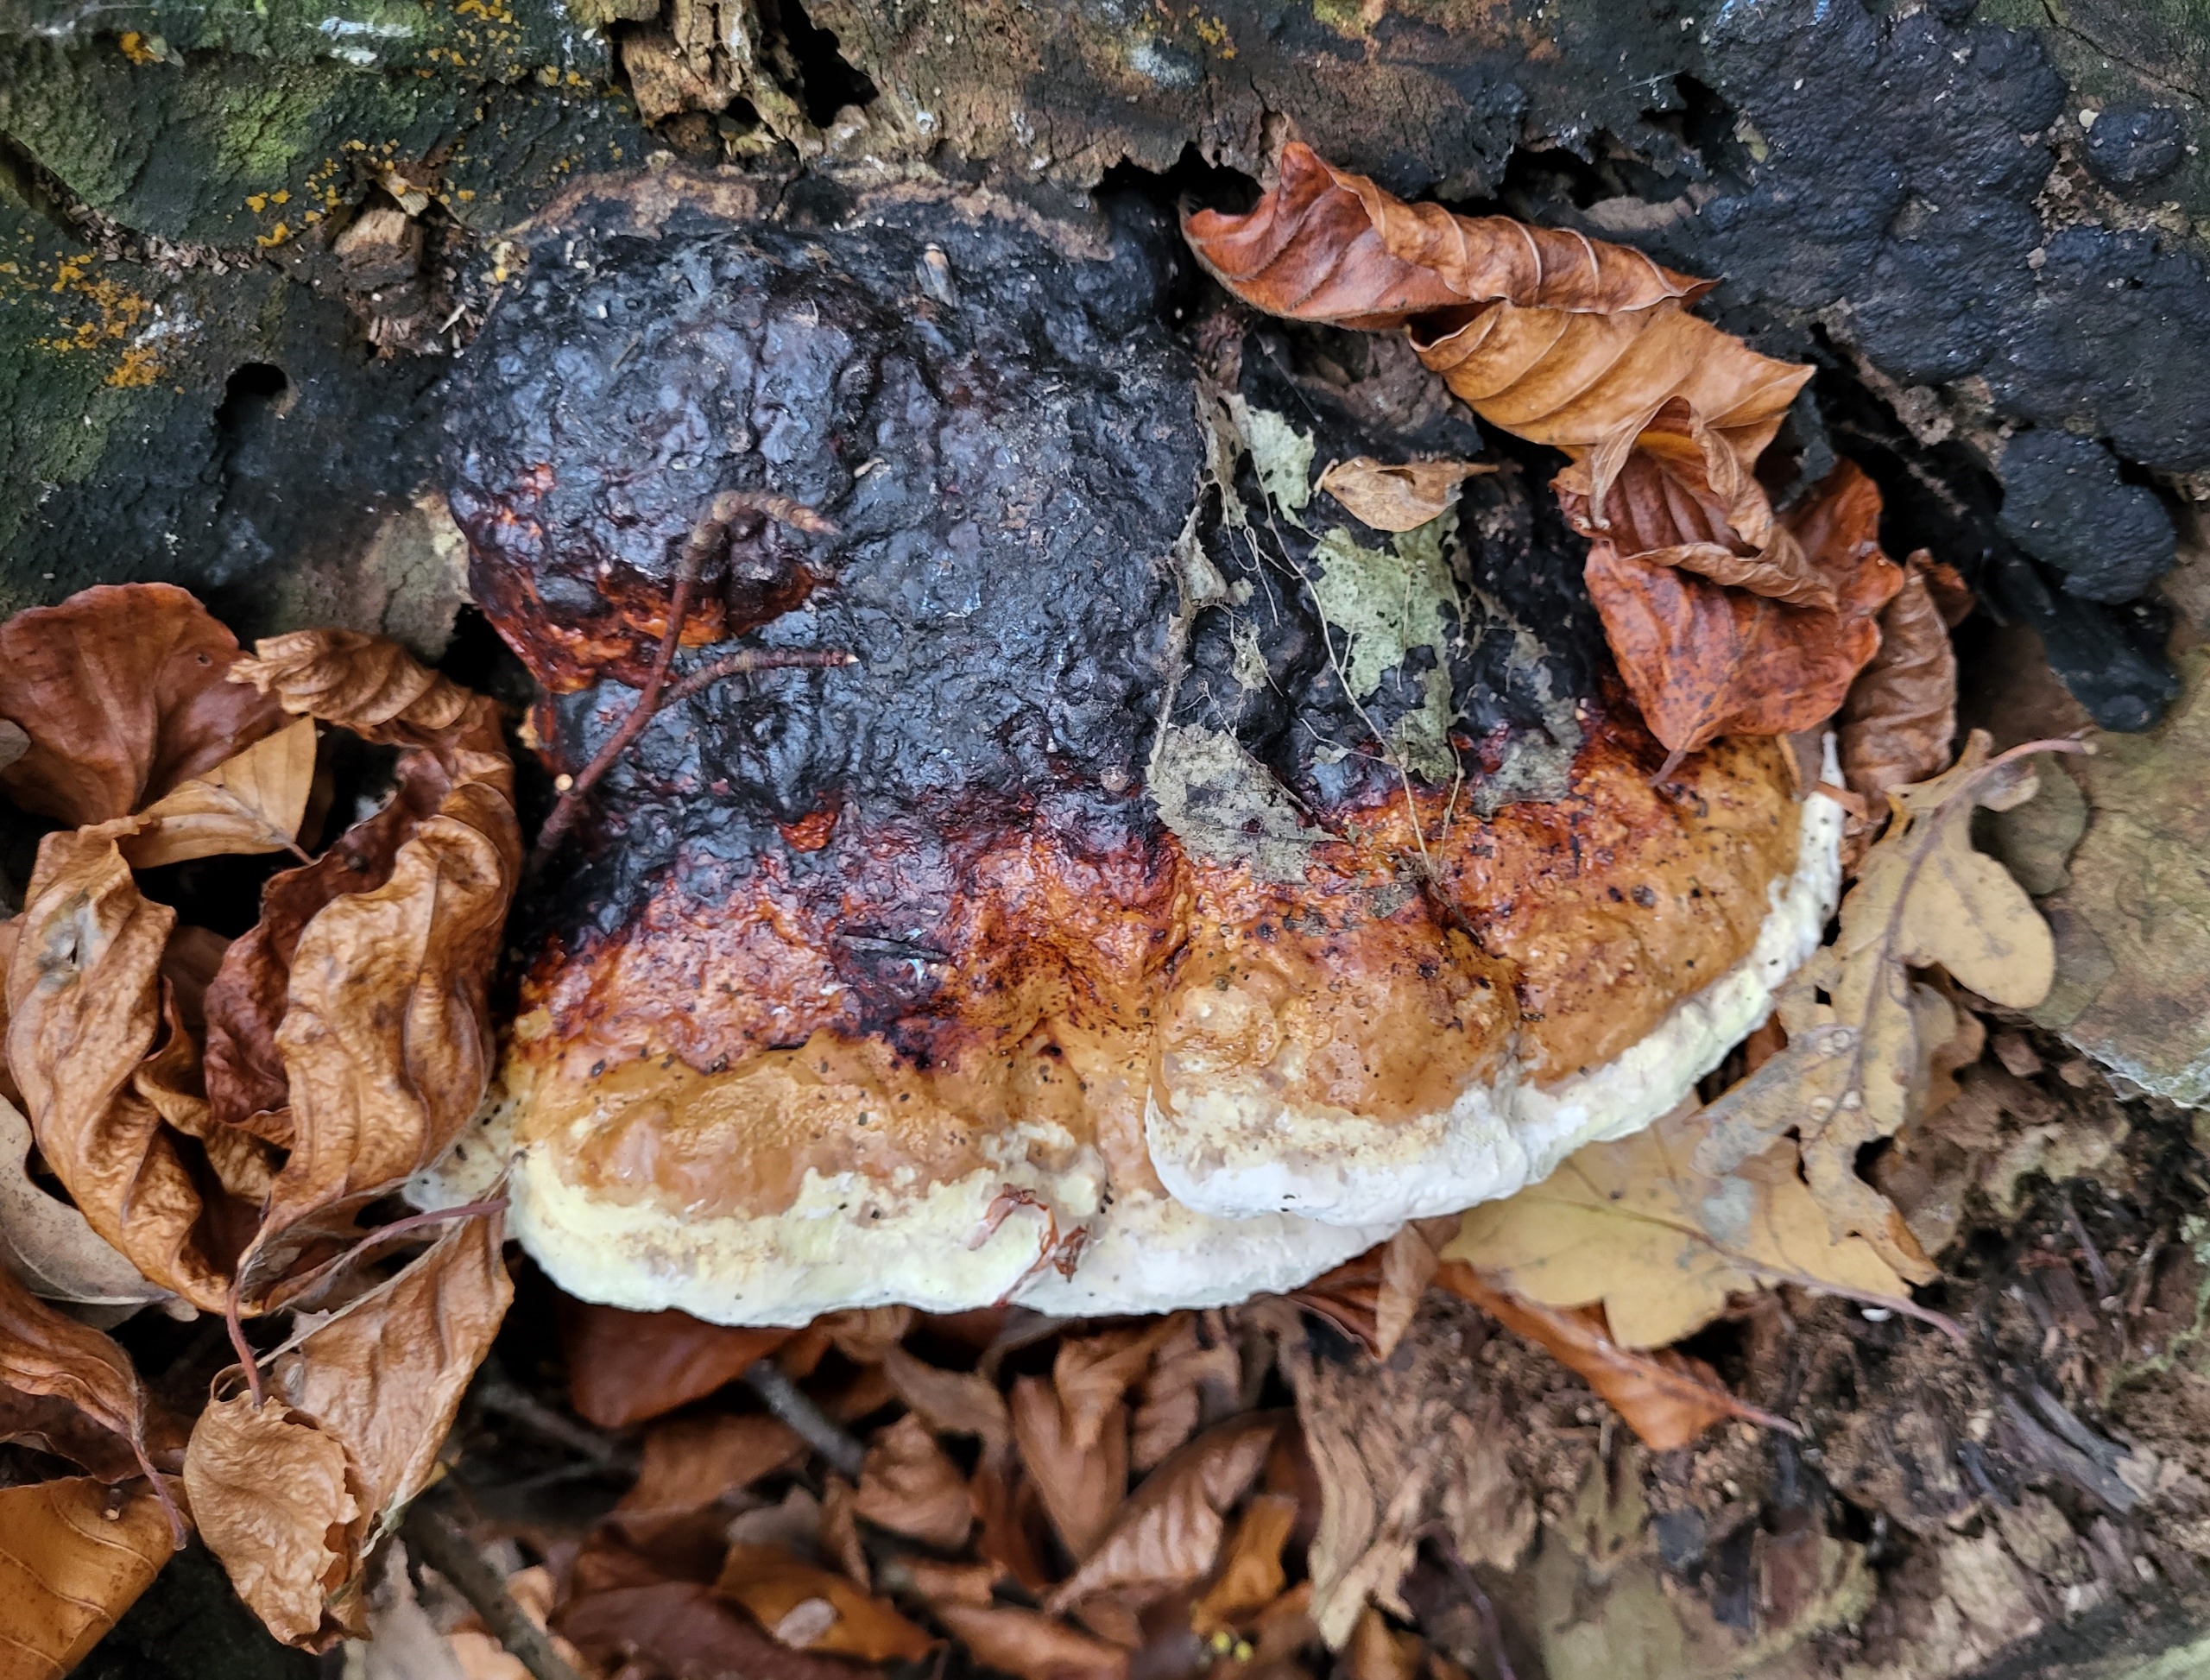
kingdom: Fungi
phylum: Basidiomycota
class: Agaricomycetes
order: Polyporales
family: Fomitopsidaceae
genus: Fomitopsis
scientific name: Fomitopsis pinicola
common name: Randbæltet hovporesvamp
